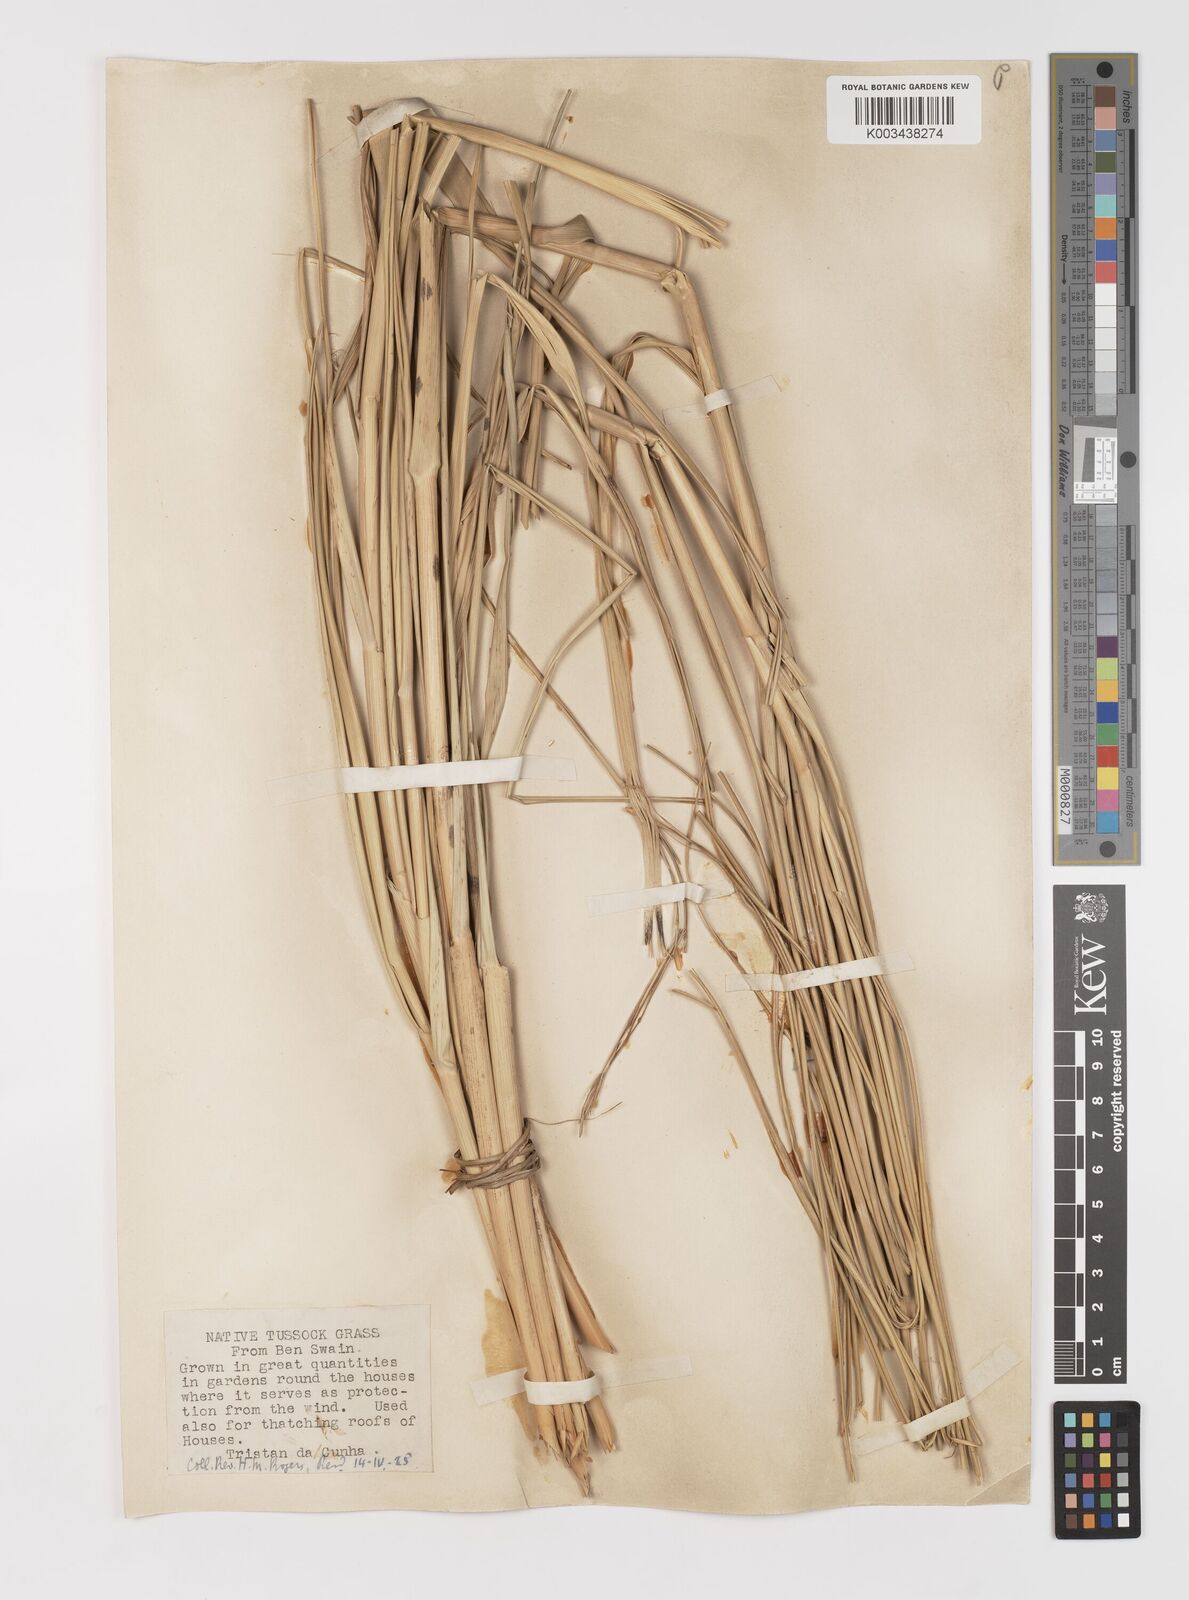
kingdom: Plantae
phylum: Tracheophyta
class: Liliopsida
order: Poales
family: Poaceae
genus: Sporobolus
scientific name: Sporobolus mobberleyanus
